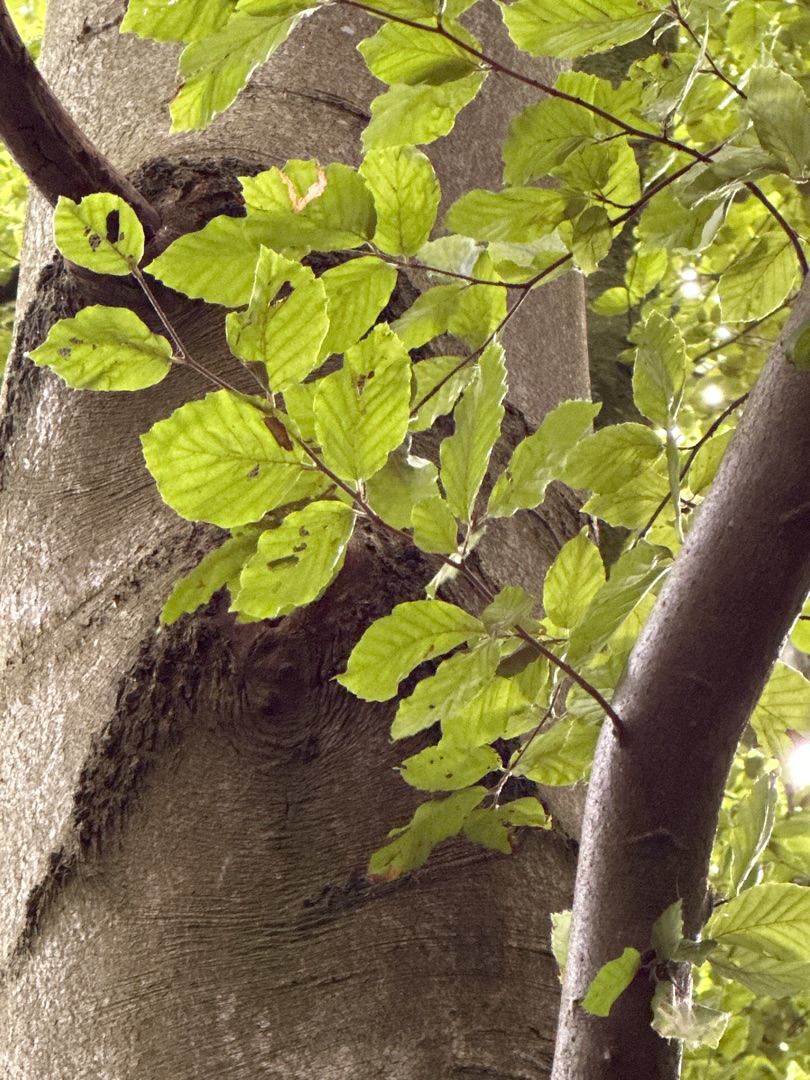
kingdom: Plantae
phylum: Tracheophyta
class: Magnoliopsida
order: Fagales
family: Fagaceae
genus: Fagus
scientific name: Fagus sylvatica
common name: Bøg
